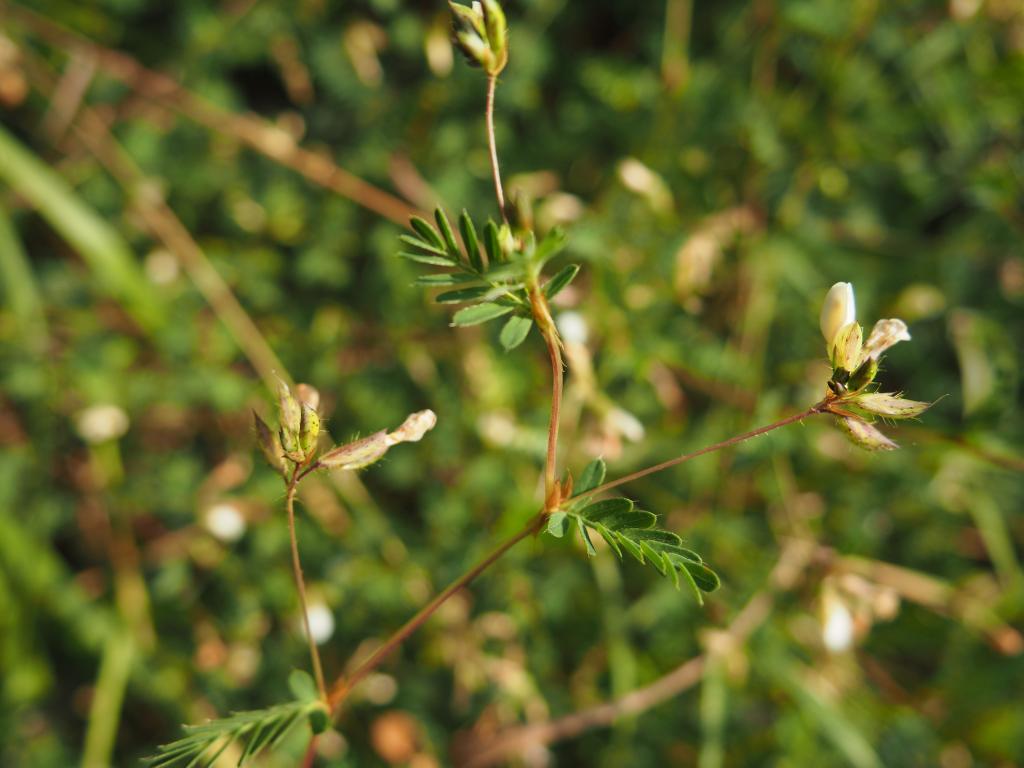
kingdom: Plantae
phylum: Tracheophyta
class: Magnoliopsida
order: Fabales
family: Fabaceae
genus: Smithia
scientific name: Smithia sensitiva
